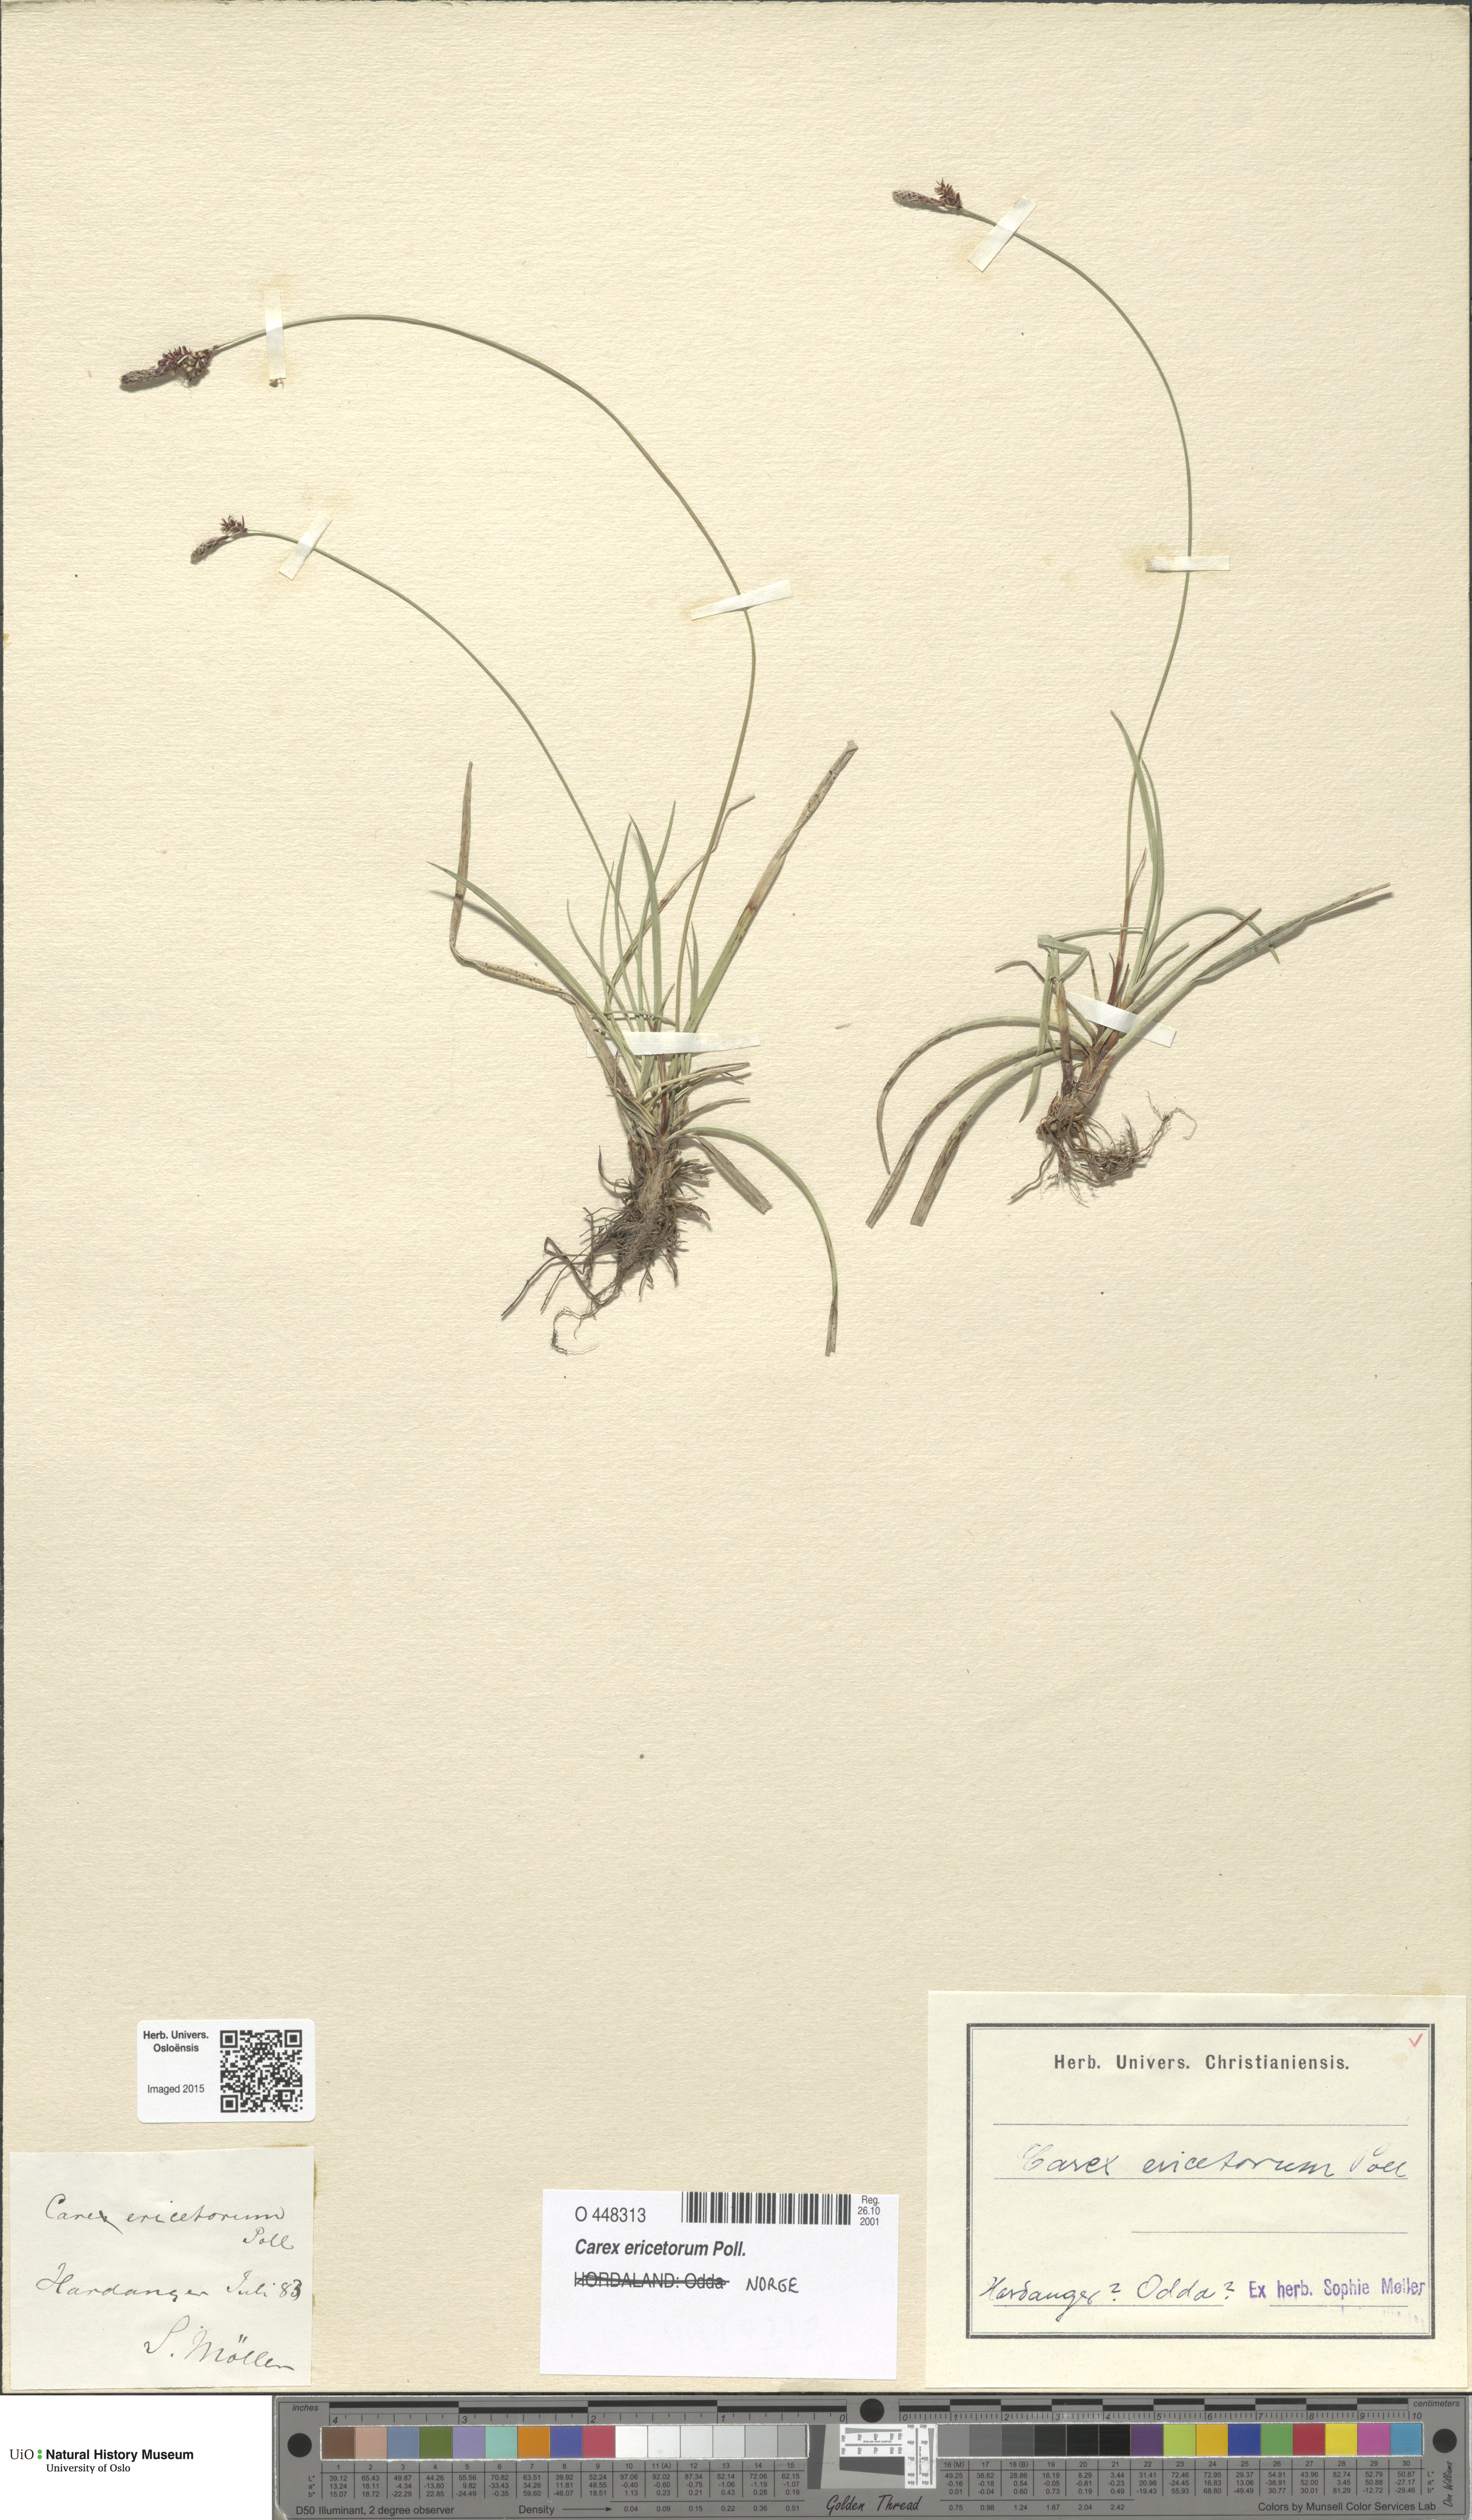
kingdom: Plantae
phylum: Tracheophyta
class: Liliopsida
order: Poales
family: Cyperaceae
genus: Carex
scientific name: Carex ericetorum
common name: Rare spring-sedge
